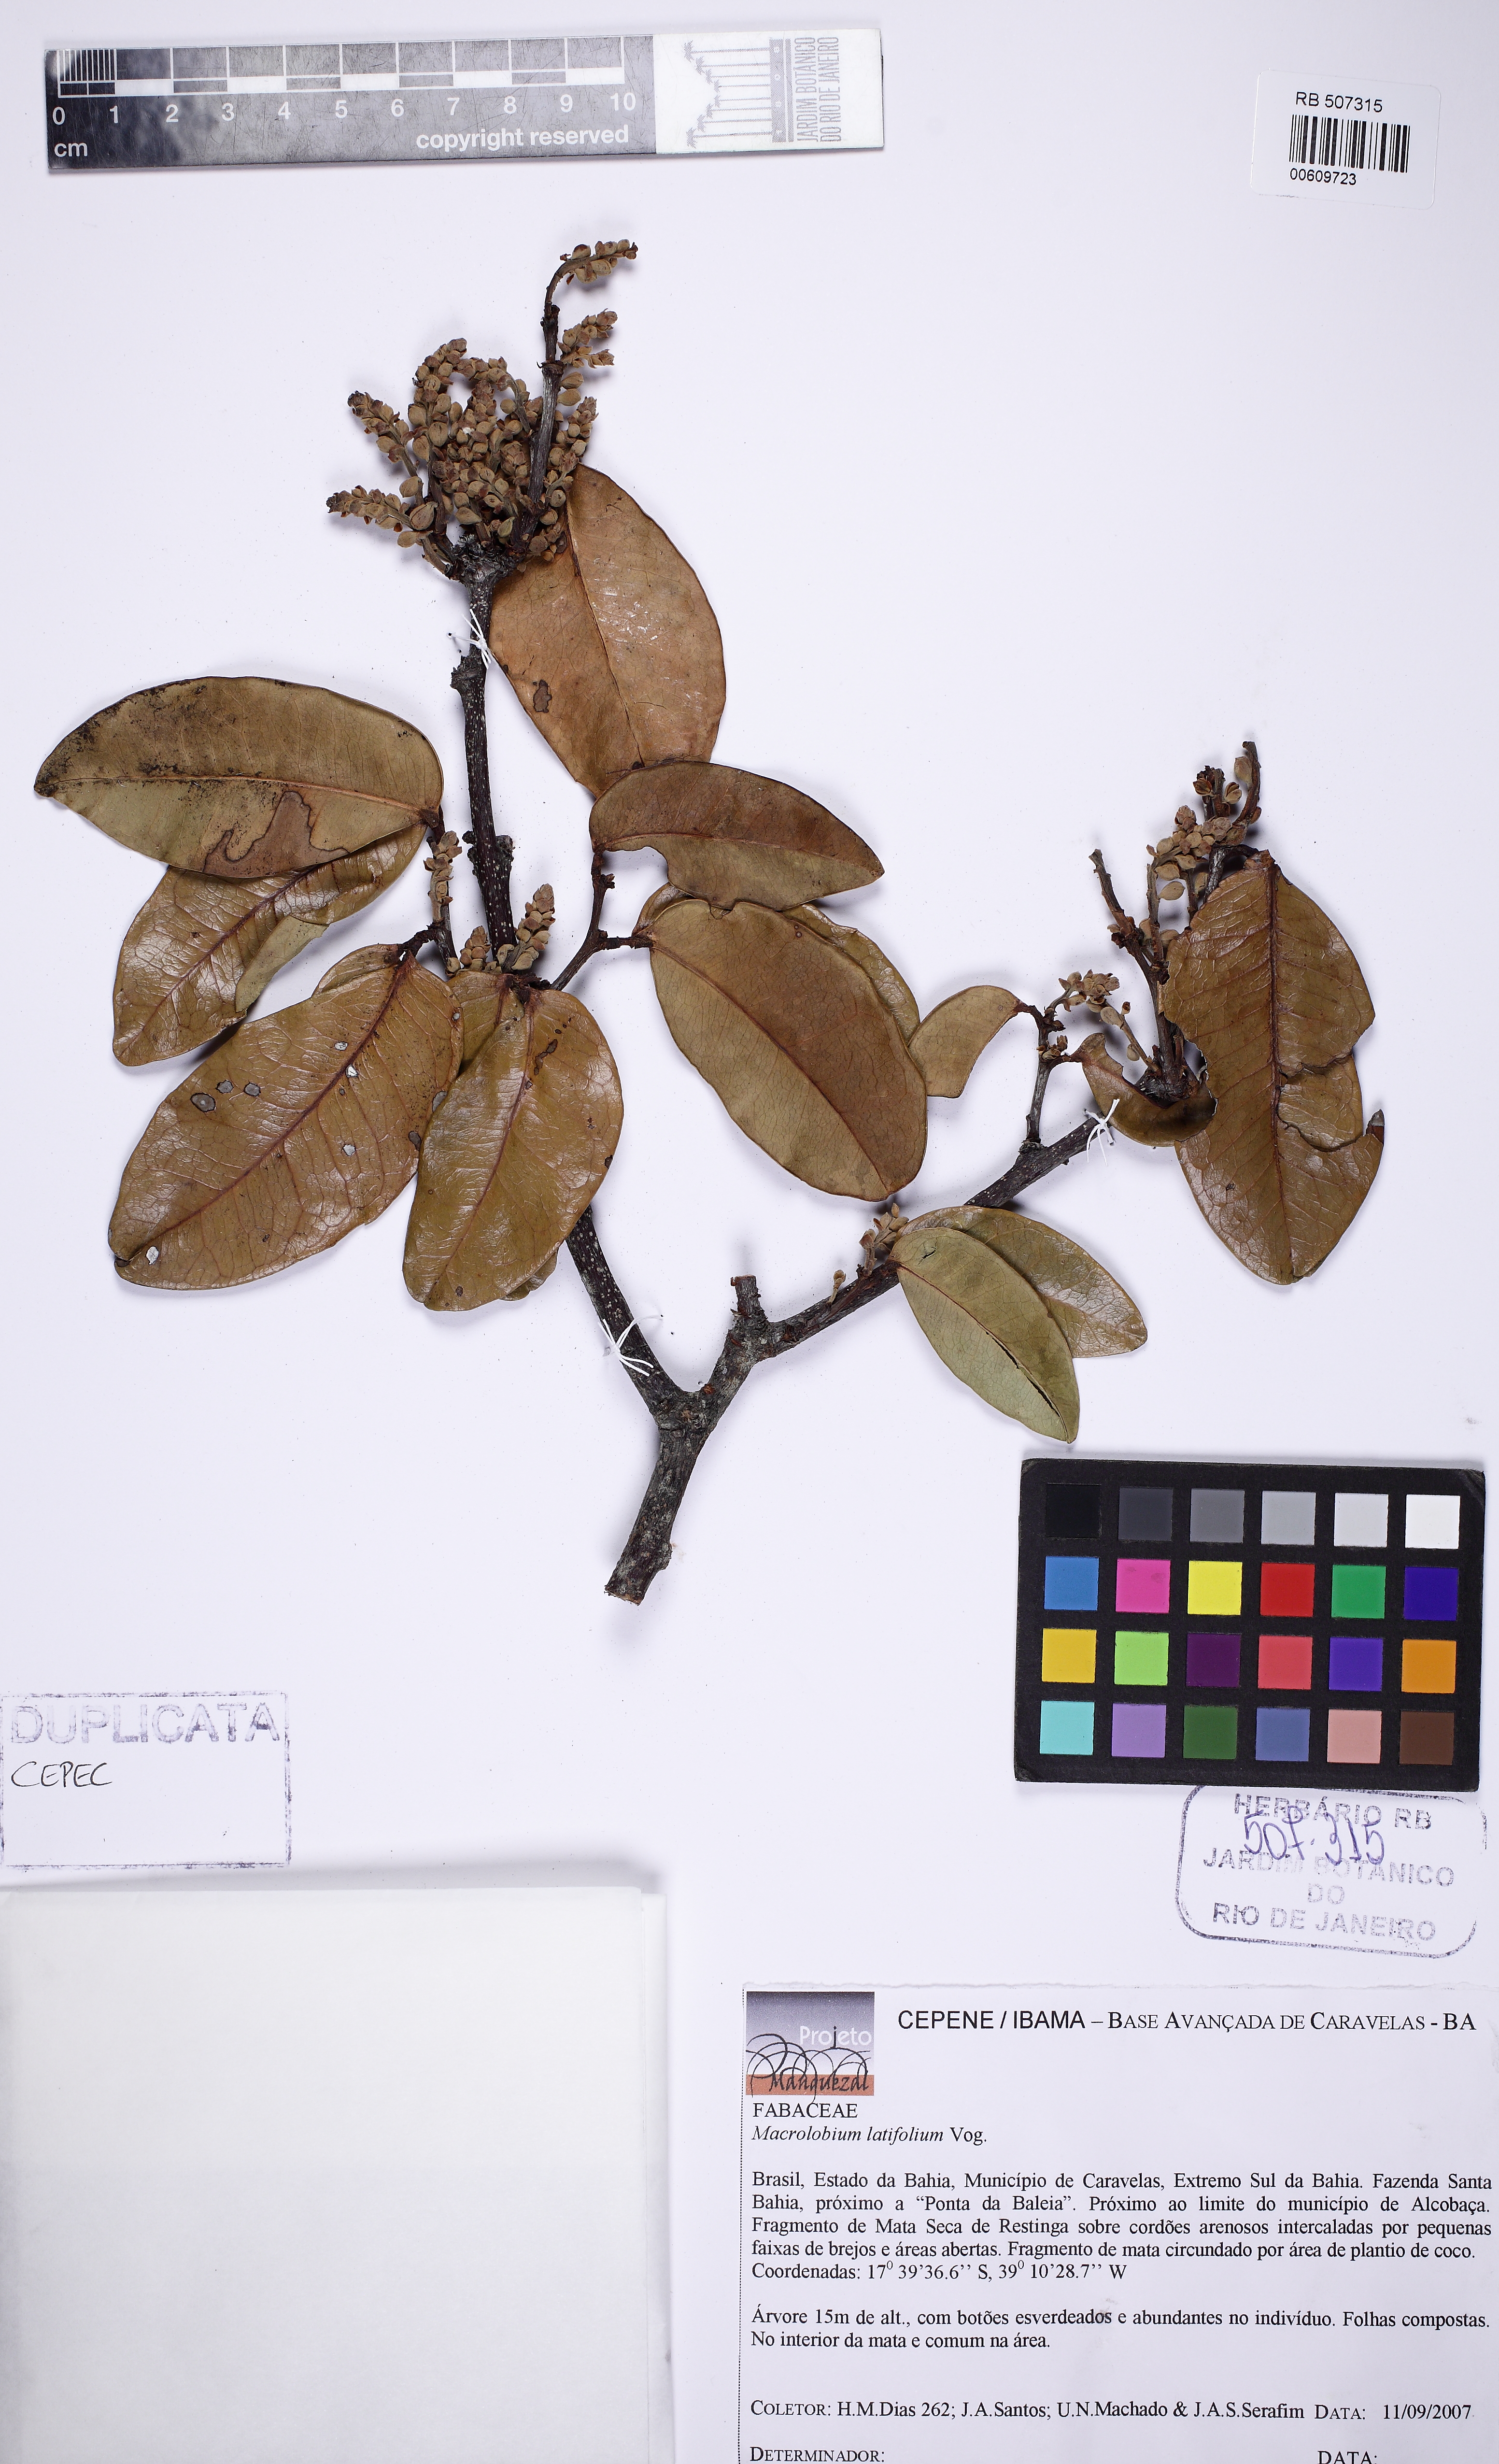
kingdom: Plantae
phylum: Tracheophyta
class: Magnoliopsida
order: Fabales
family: Fabaceae
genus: Macrolobium
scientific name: Macrolobium latifolium
